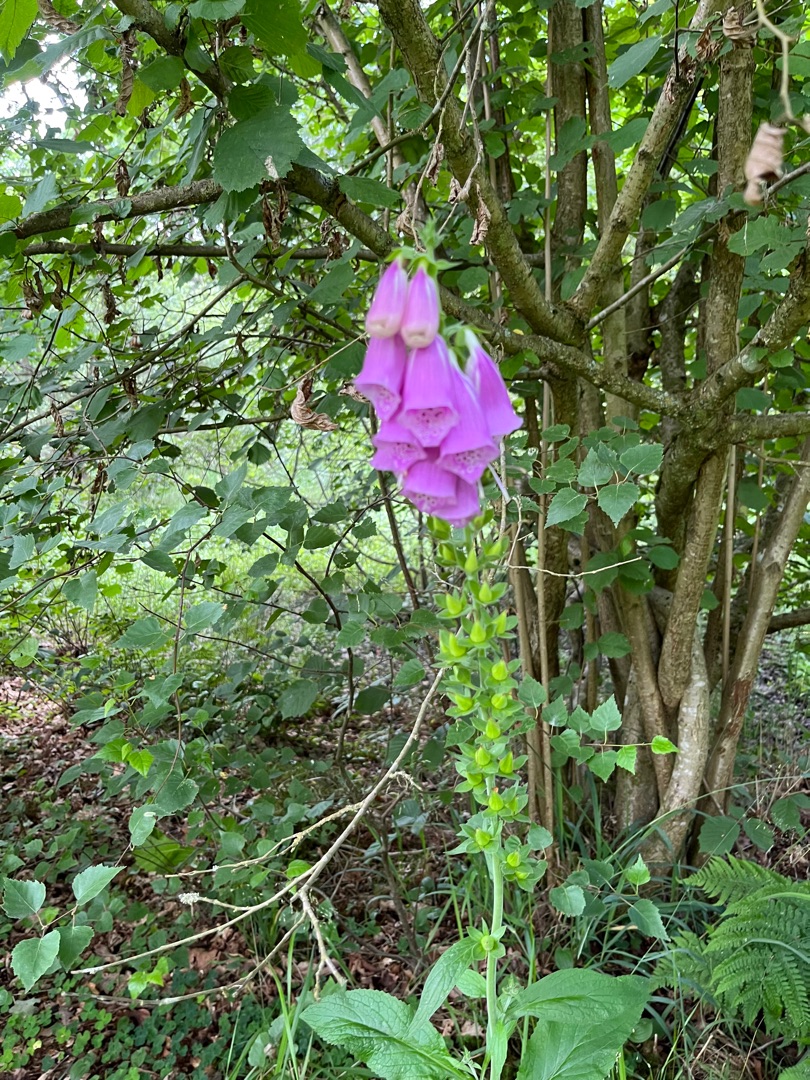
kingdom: Plantae
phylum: Tracheophyta
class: Magnoliopsida
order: Lamiales
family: Plantaginaceae
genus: Digitalis
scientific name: Digitalis purpurea
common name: Almindelig fingerbøl
